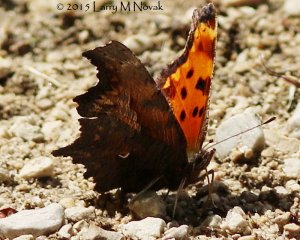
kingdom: Animalia
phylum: Arthropoda
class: Insecta
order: Lepidoptera
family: Nymphalidae
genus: Polygonia
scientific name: Polygonia progne
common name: Gray Comma
